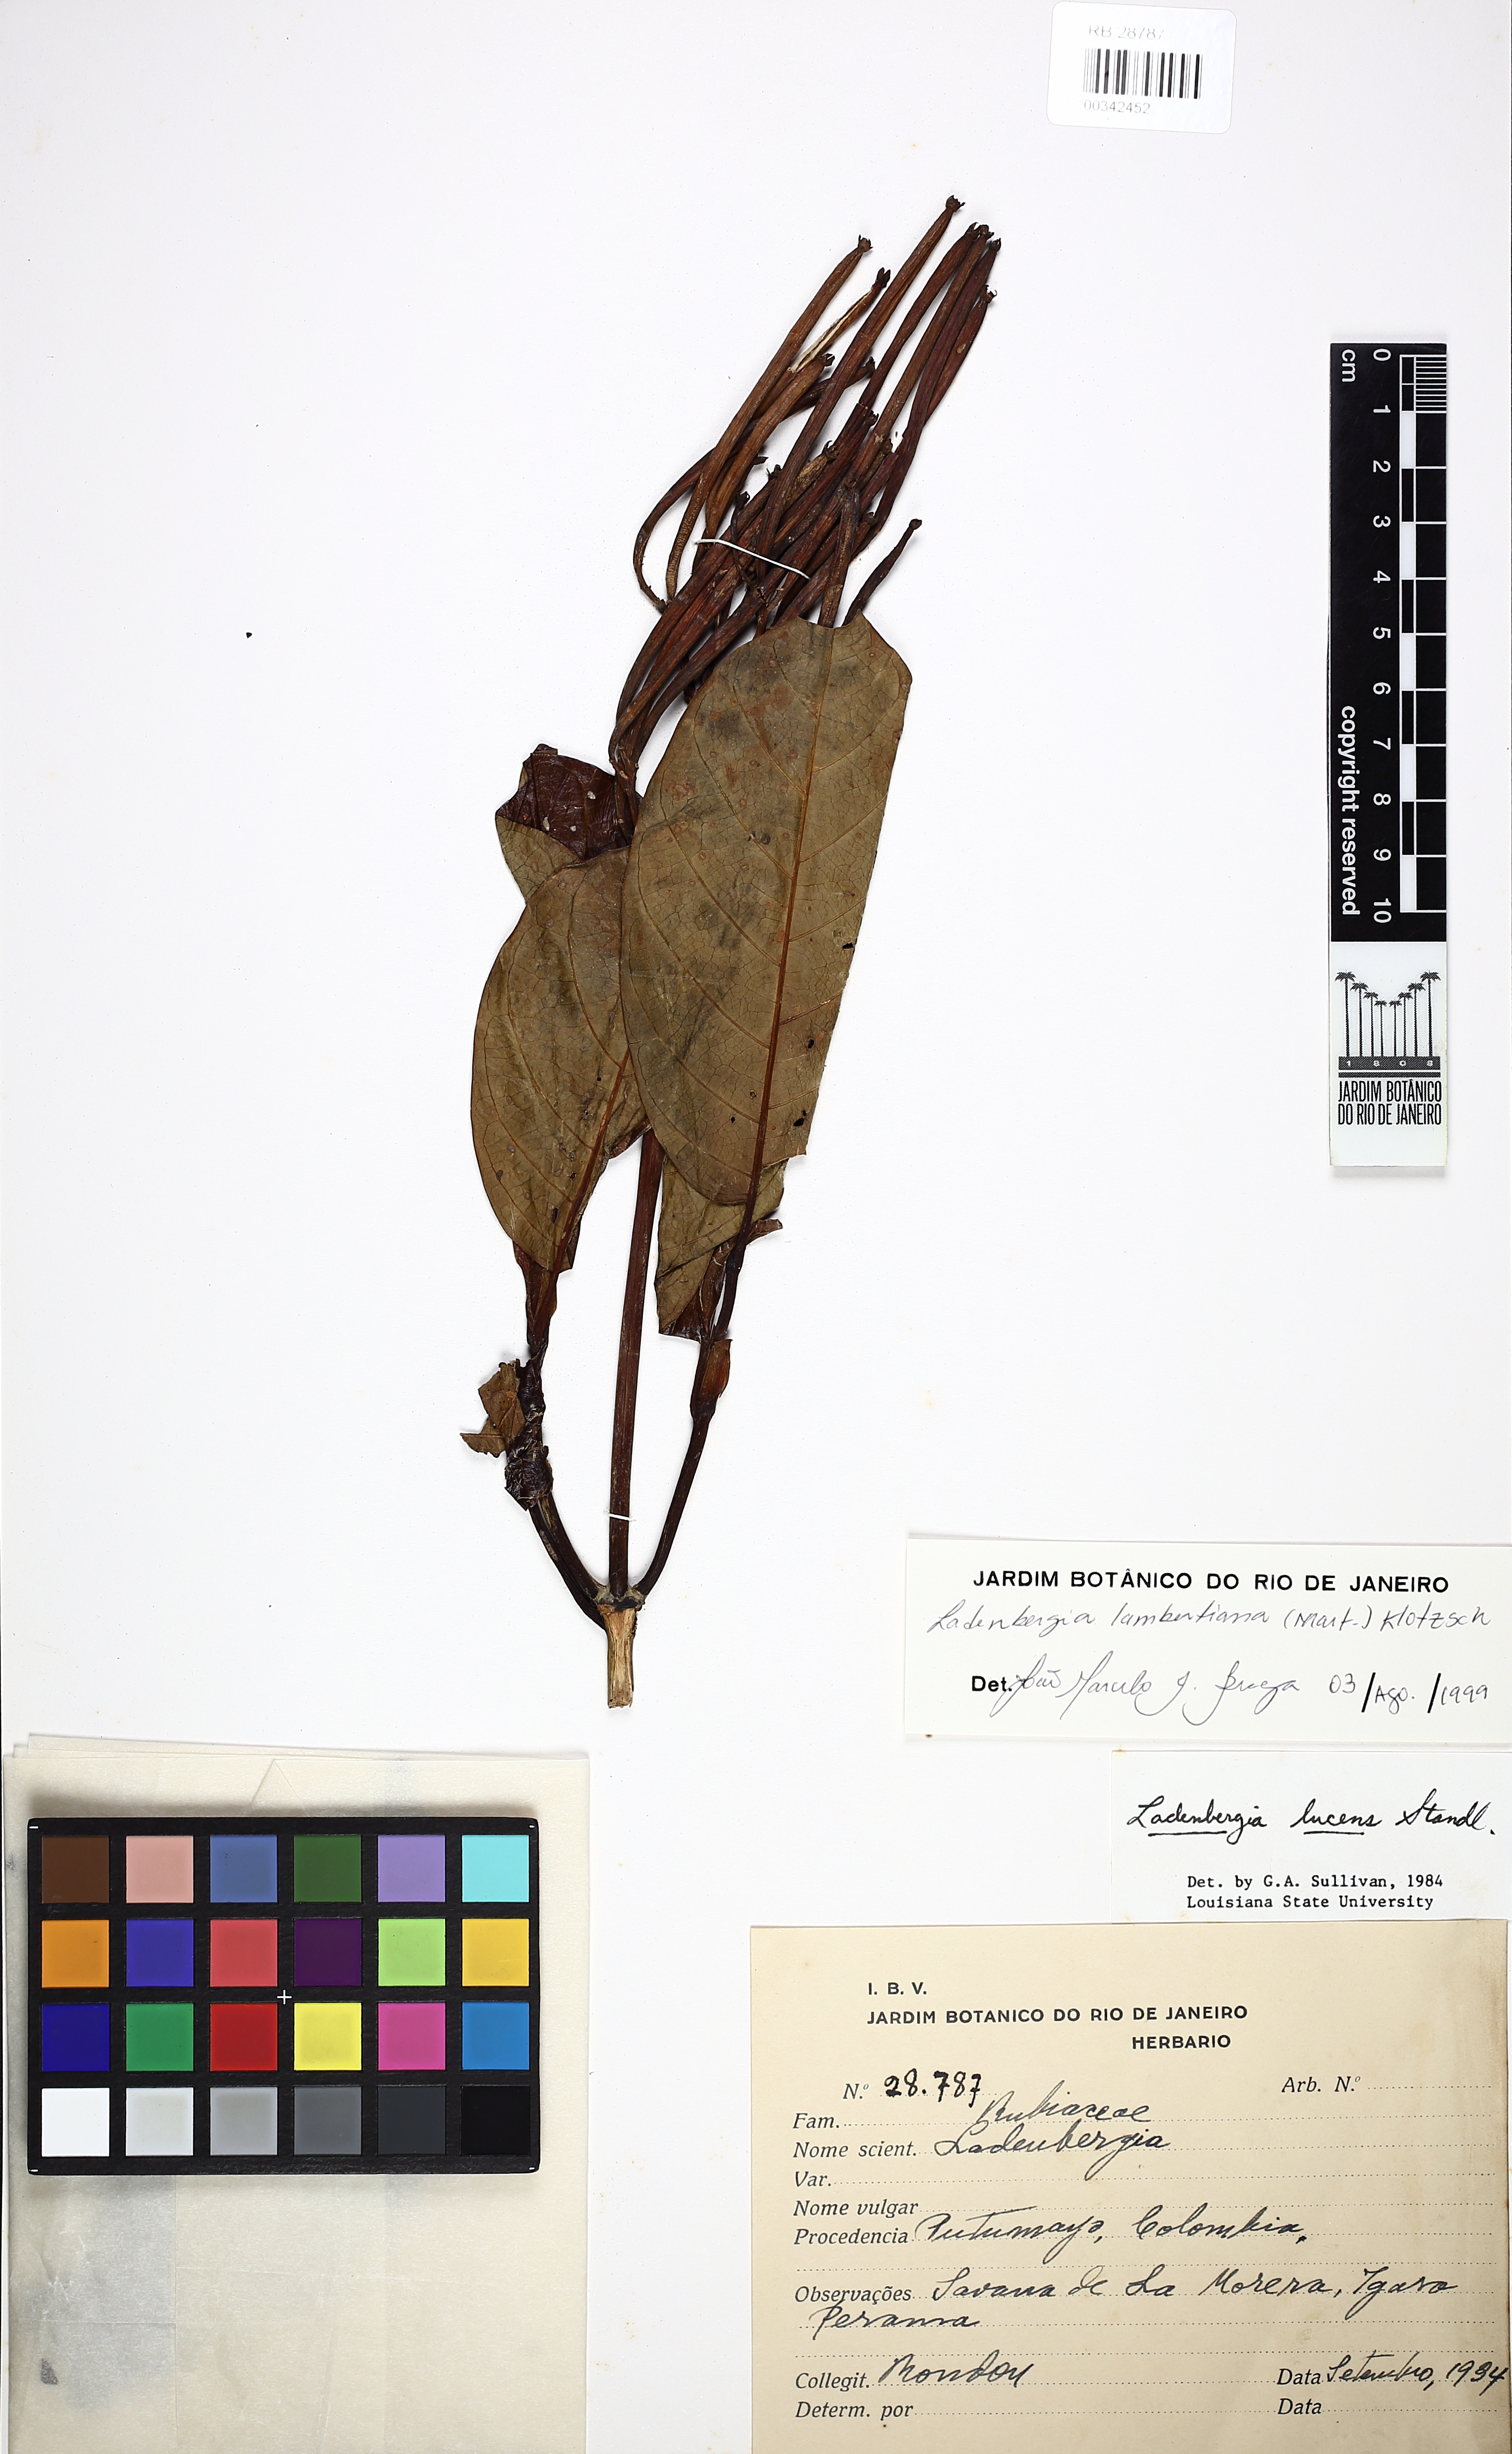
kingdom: Plantae
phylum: Tracheophyta
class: Magnoliopsida
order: Gentianales
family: Rubiaceae
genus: Ladenbergia
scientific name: Ladenbergia lambertiana
